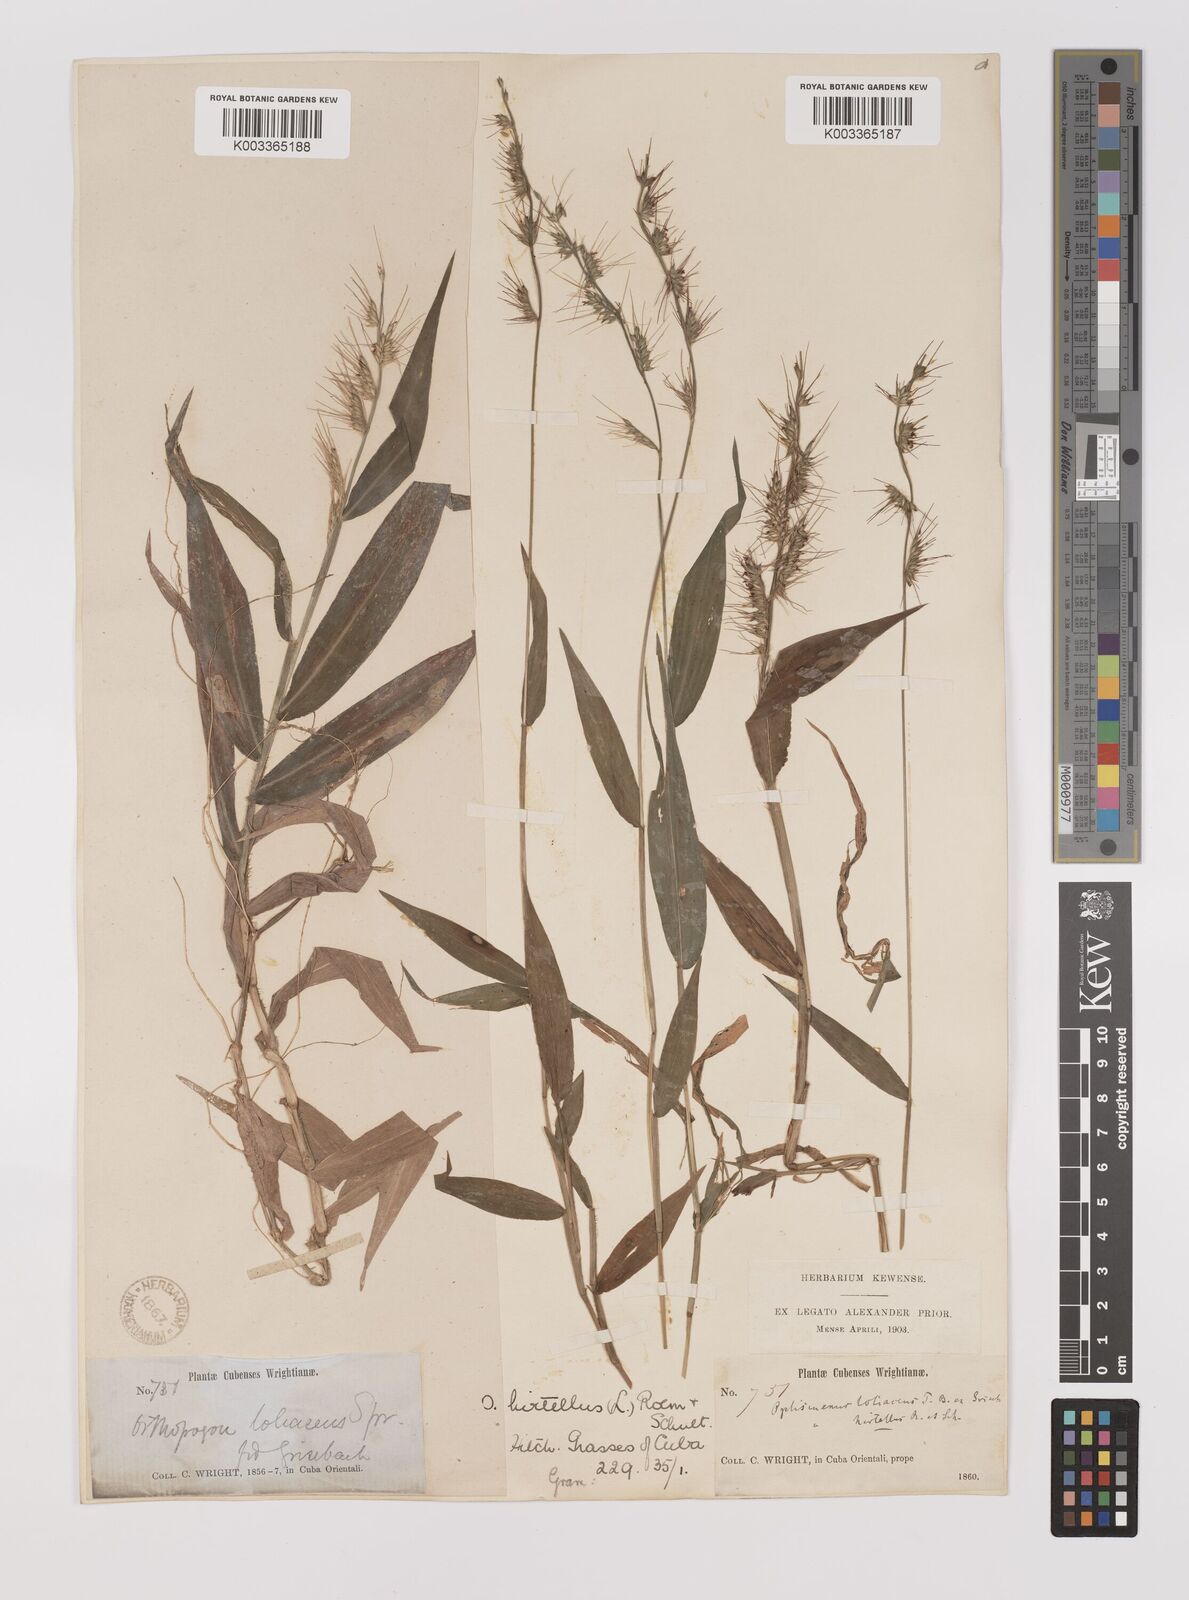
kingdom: Plantae
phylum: Tracheophyta
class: Liliopsida
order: Poales
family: Poaceae
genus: Oplismenus
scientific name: Oplismenus hirtellus
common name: Basketgrass
